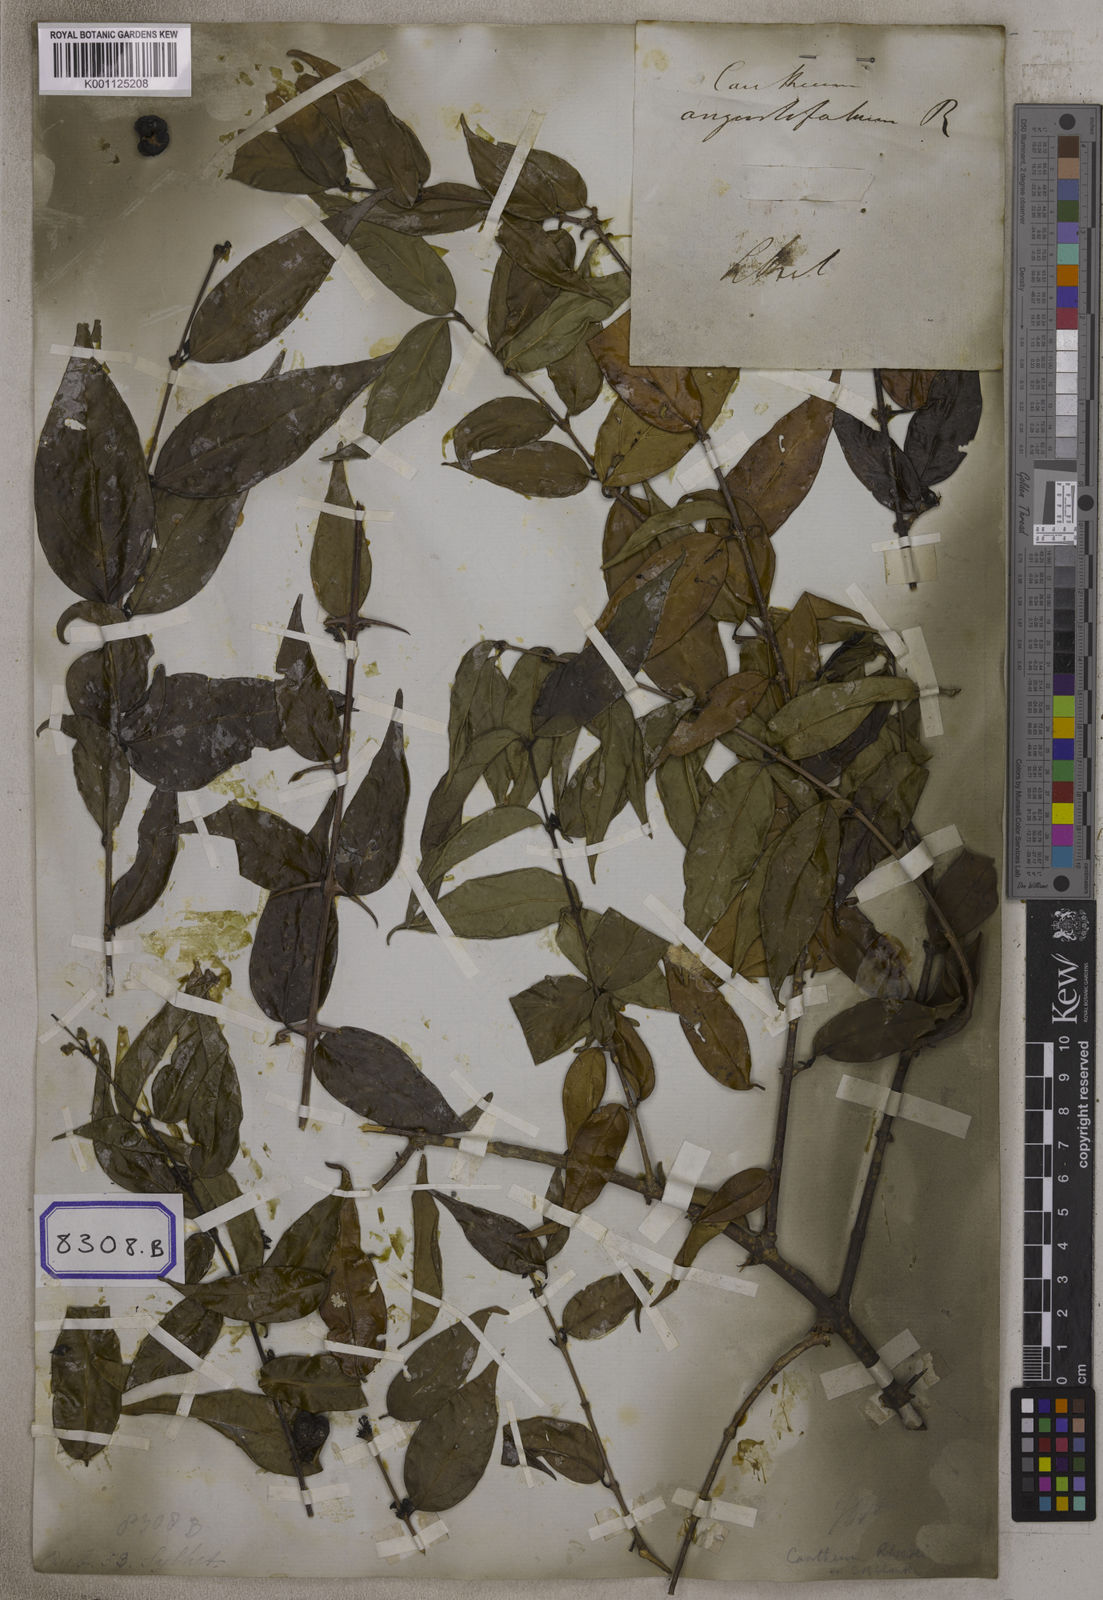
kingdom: Plantae
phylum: Tracheophyta
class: Magnoliopsida
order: Gentianales
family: Rubiaceae
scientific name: Rubiaceae
